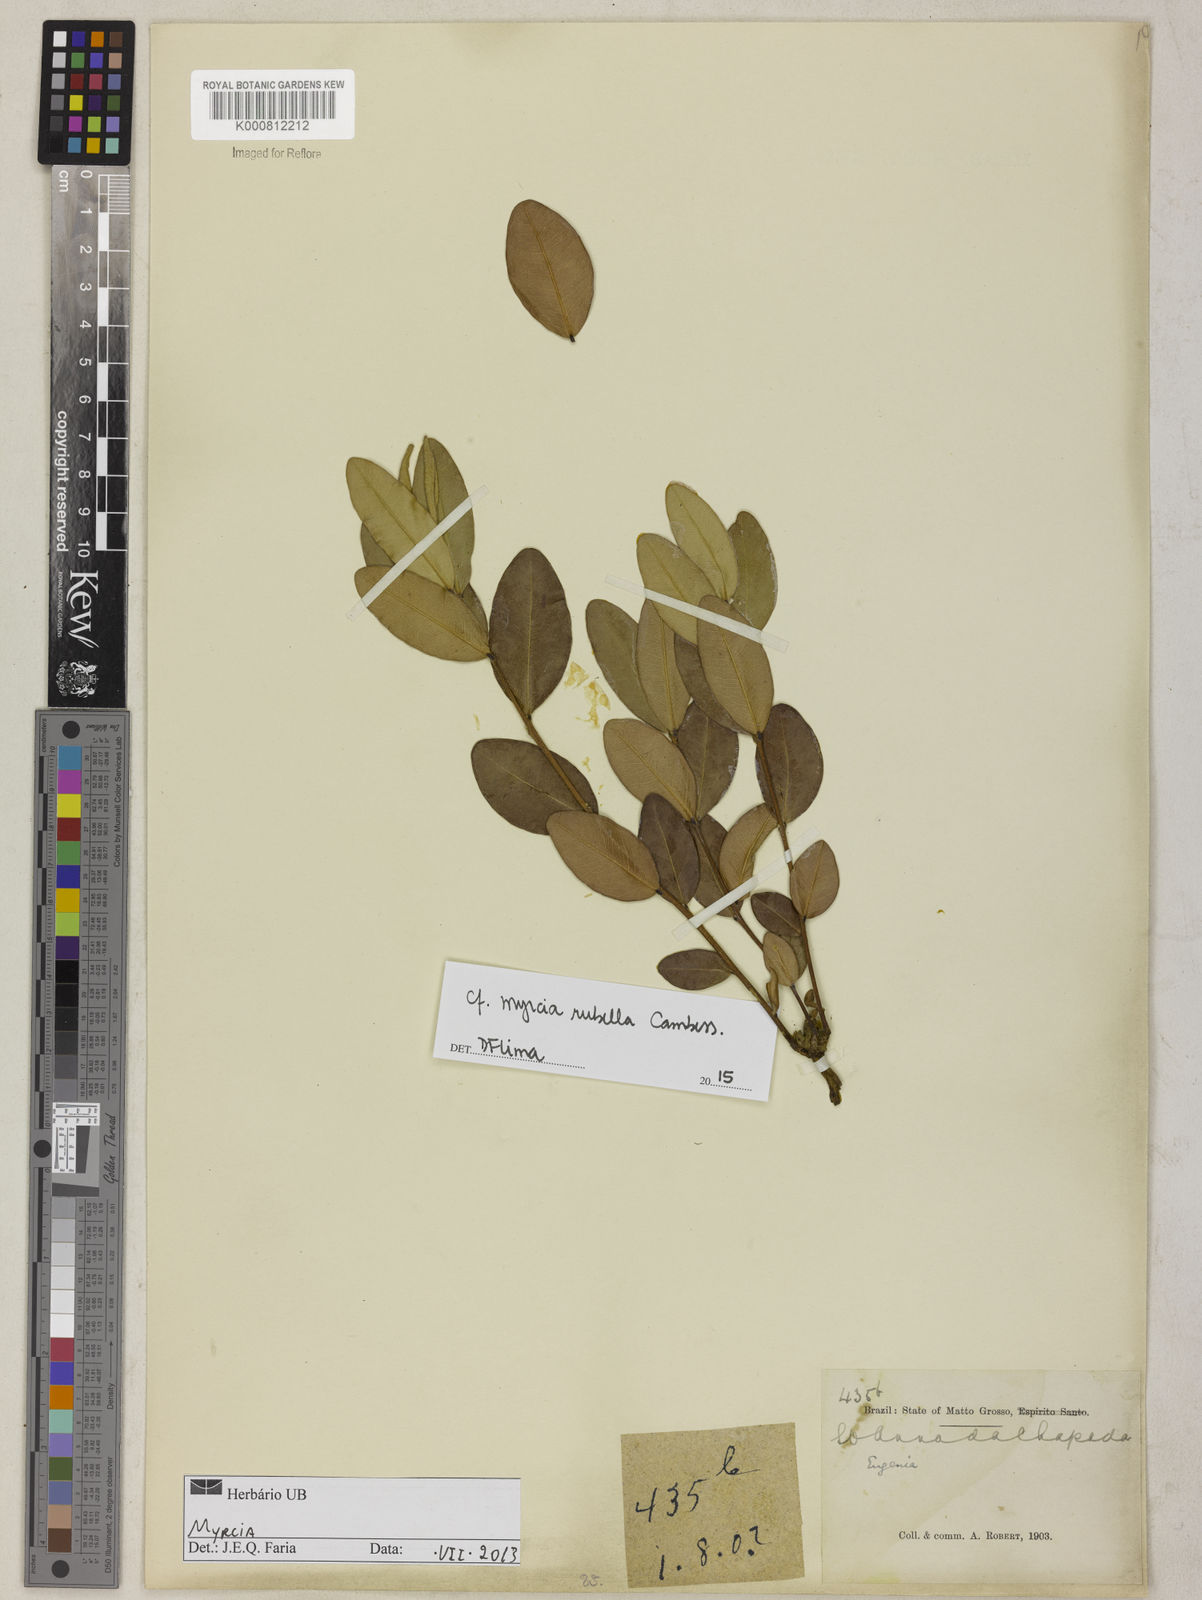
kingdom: Plantae
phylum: Tracheophyta
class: Magnoliopsida
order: Myrtales
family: Myrtaceae
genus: Myrcia
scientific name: Myrcia guianensis
